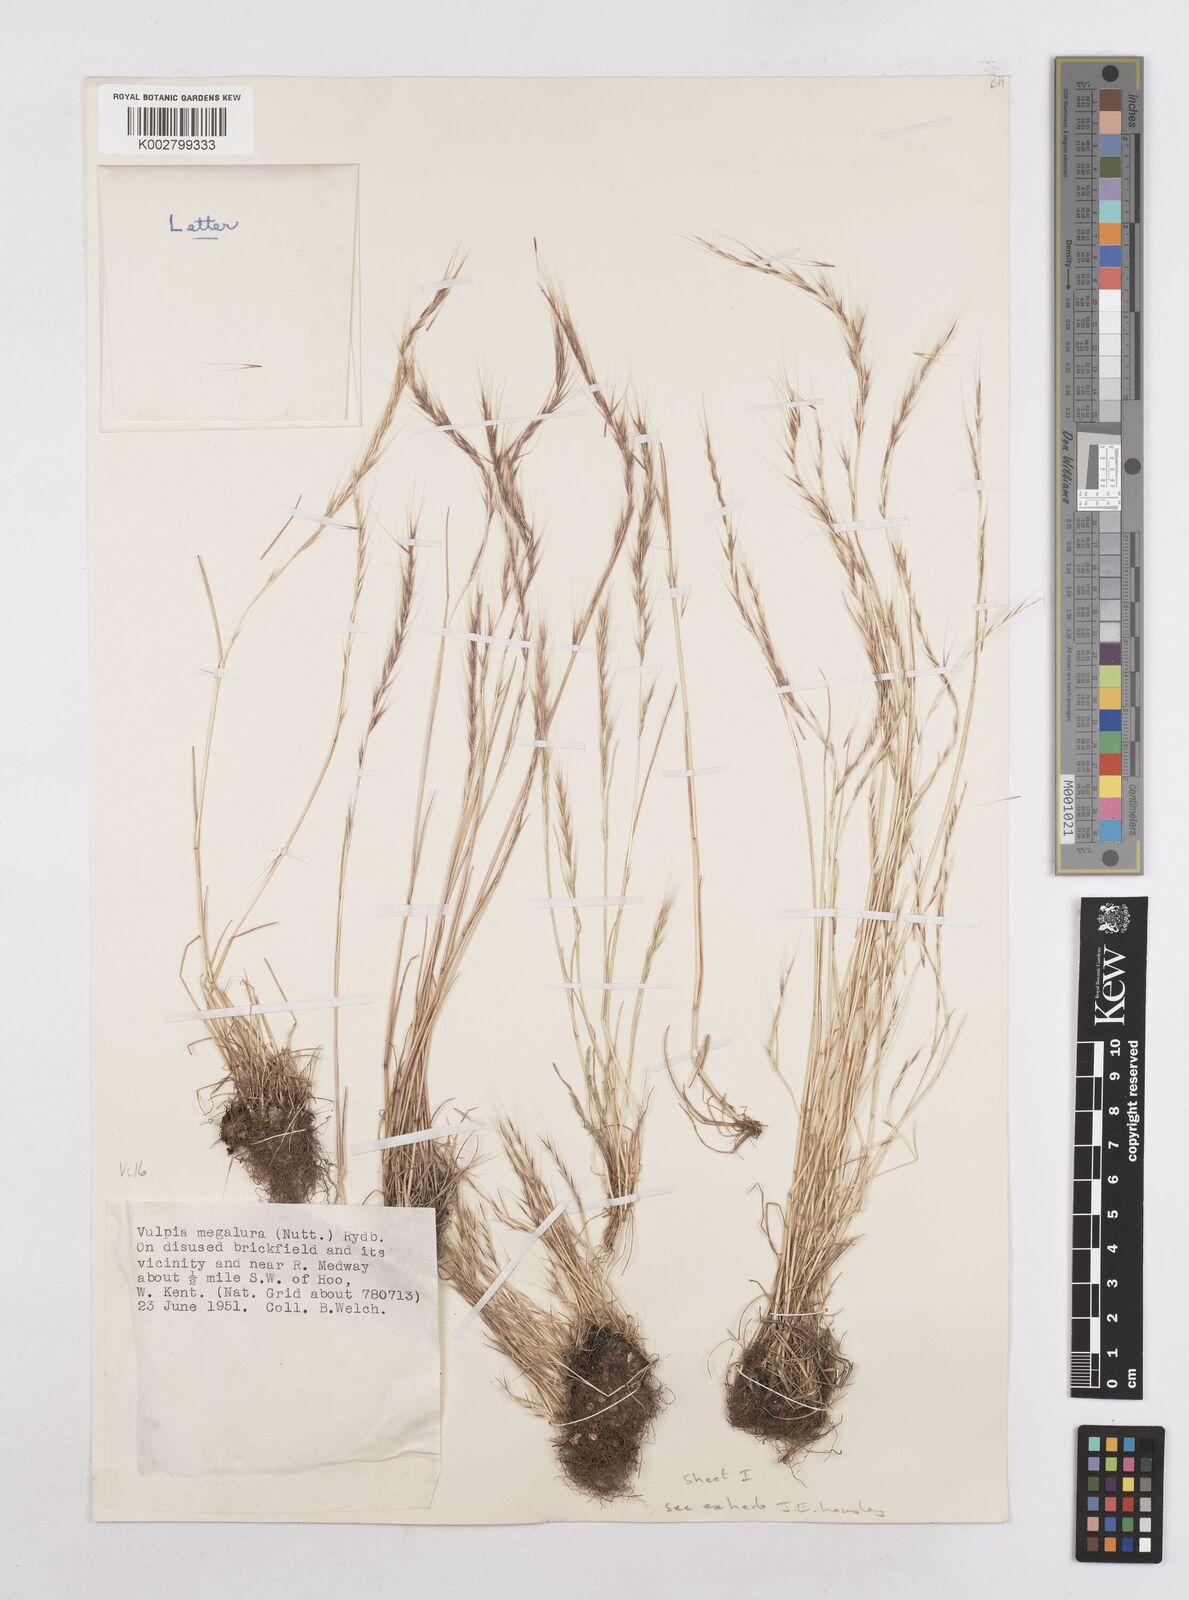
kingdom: Plantae
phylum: Tracheophyta
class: Liliopsida
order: Poales
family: Poaceae
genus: Festuca
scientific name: Festuca myuros
